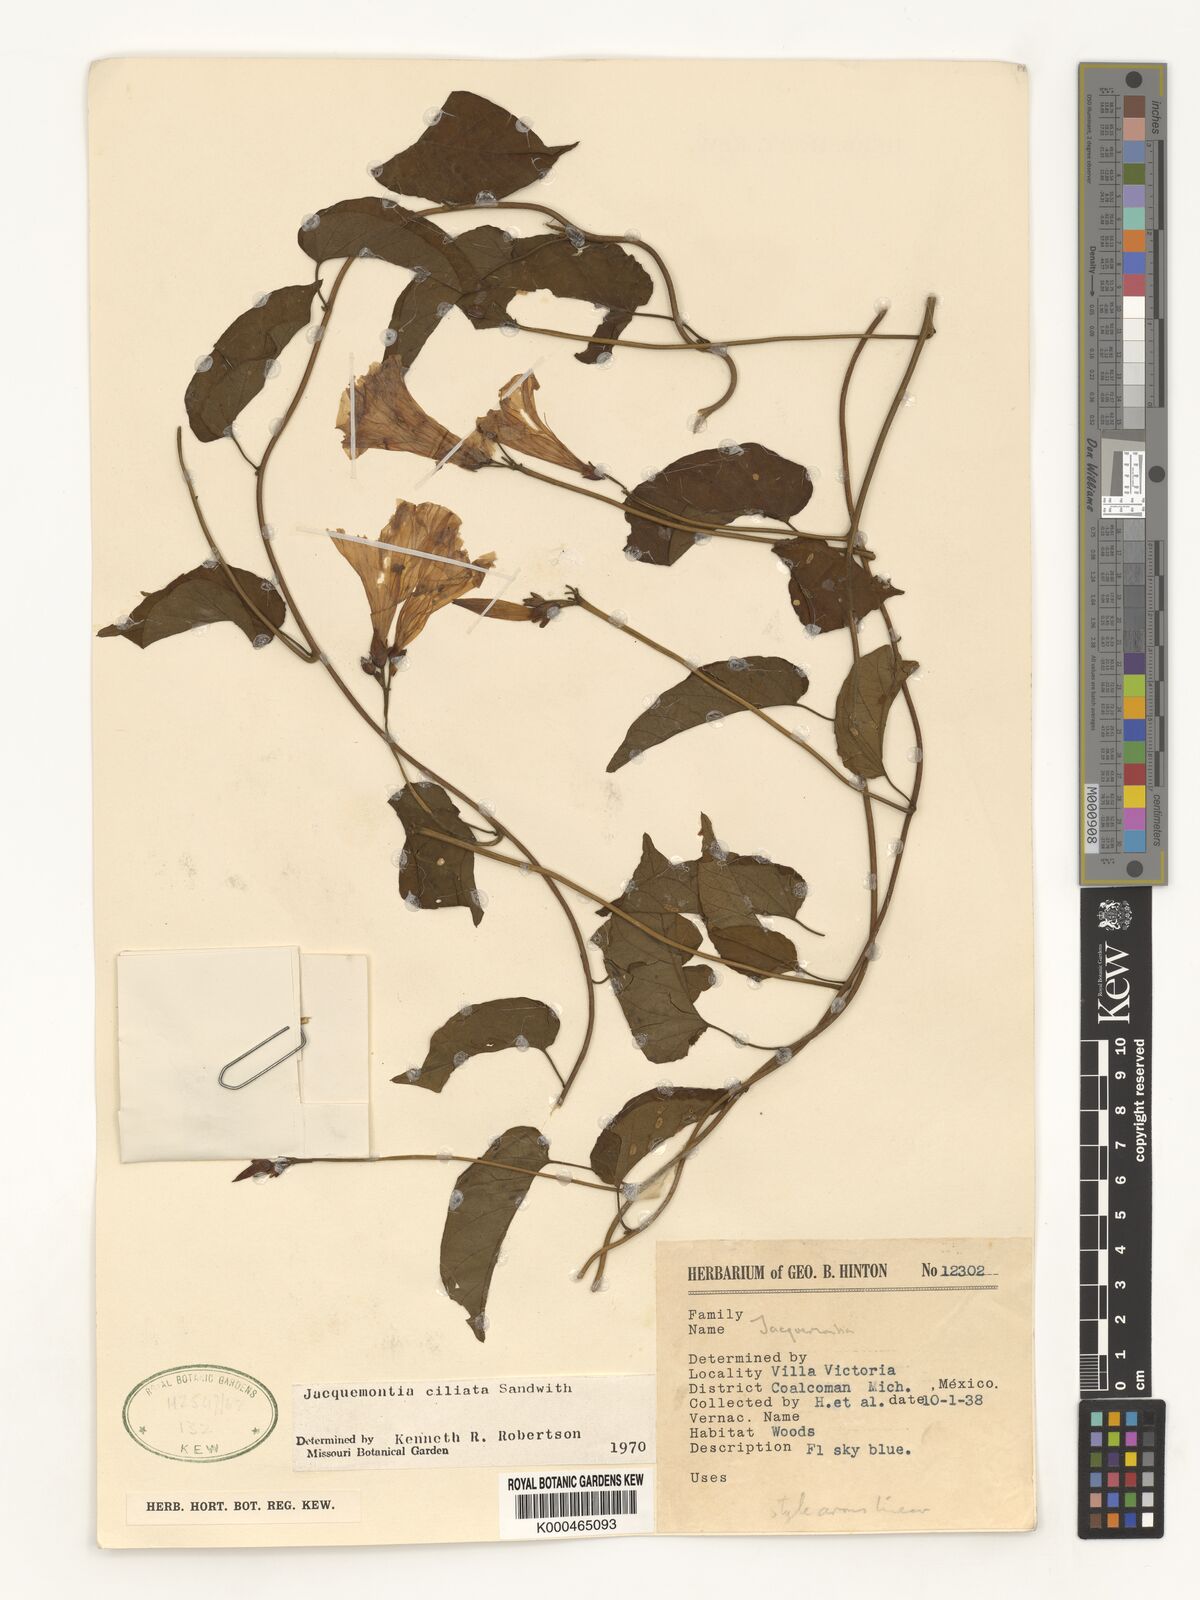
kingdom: Plantae
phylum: Tracheophyta
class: Magnoliopsida
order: Solanales
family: Convolvulaceae
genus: Jacquemontia
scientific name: Jacquemontia gabrielii
